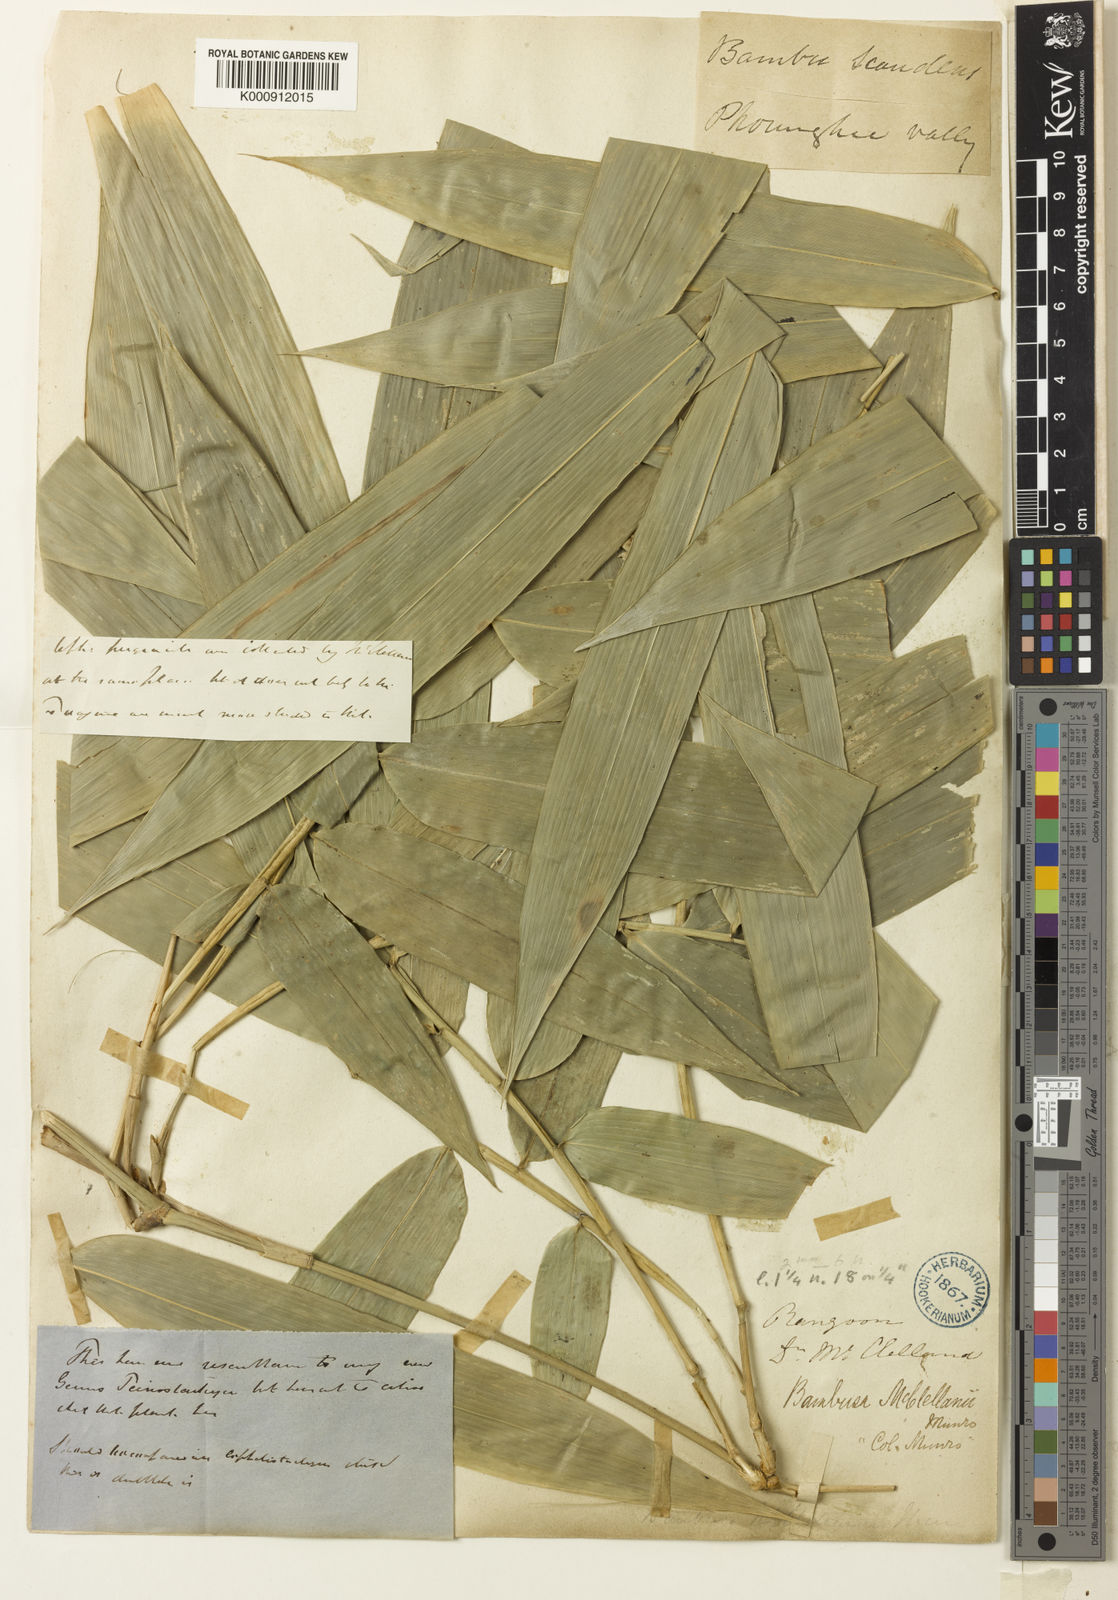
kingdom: Plantae
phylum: Tracheophyta
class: Liliopsida
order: Poales
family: Poaceae
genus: Dinochloa
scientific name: Dinochloa macclellandii
